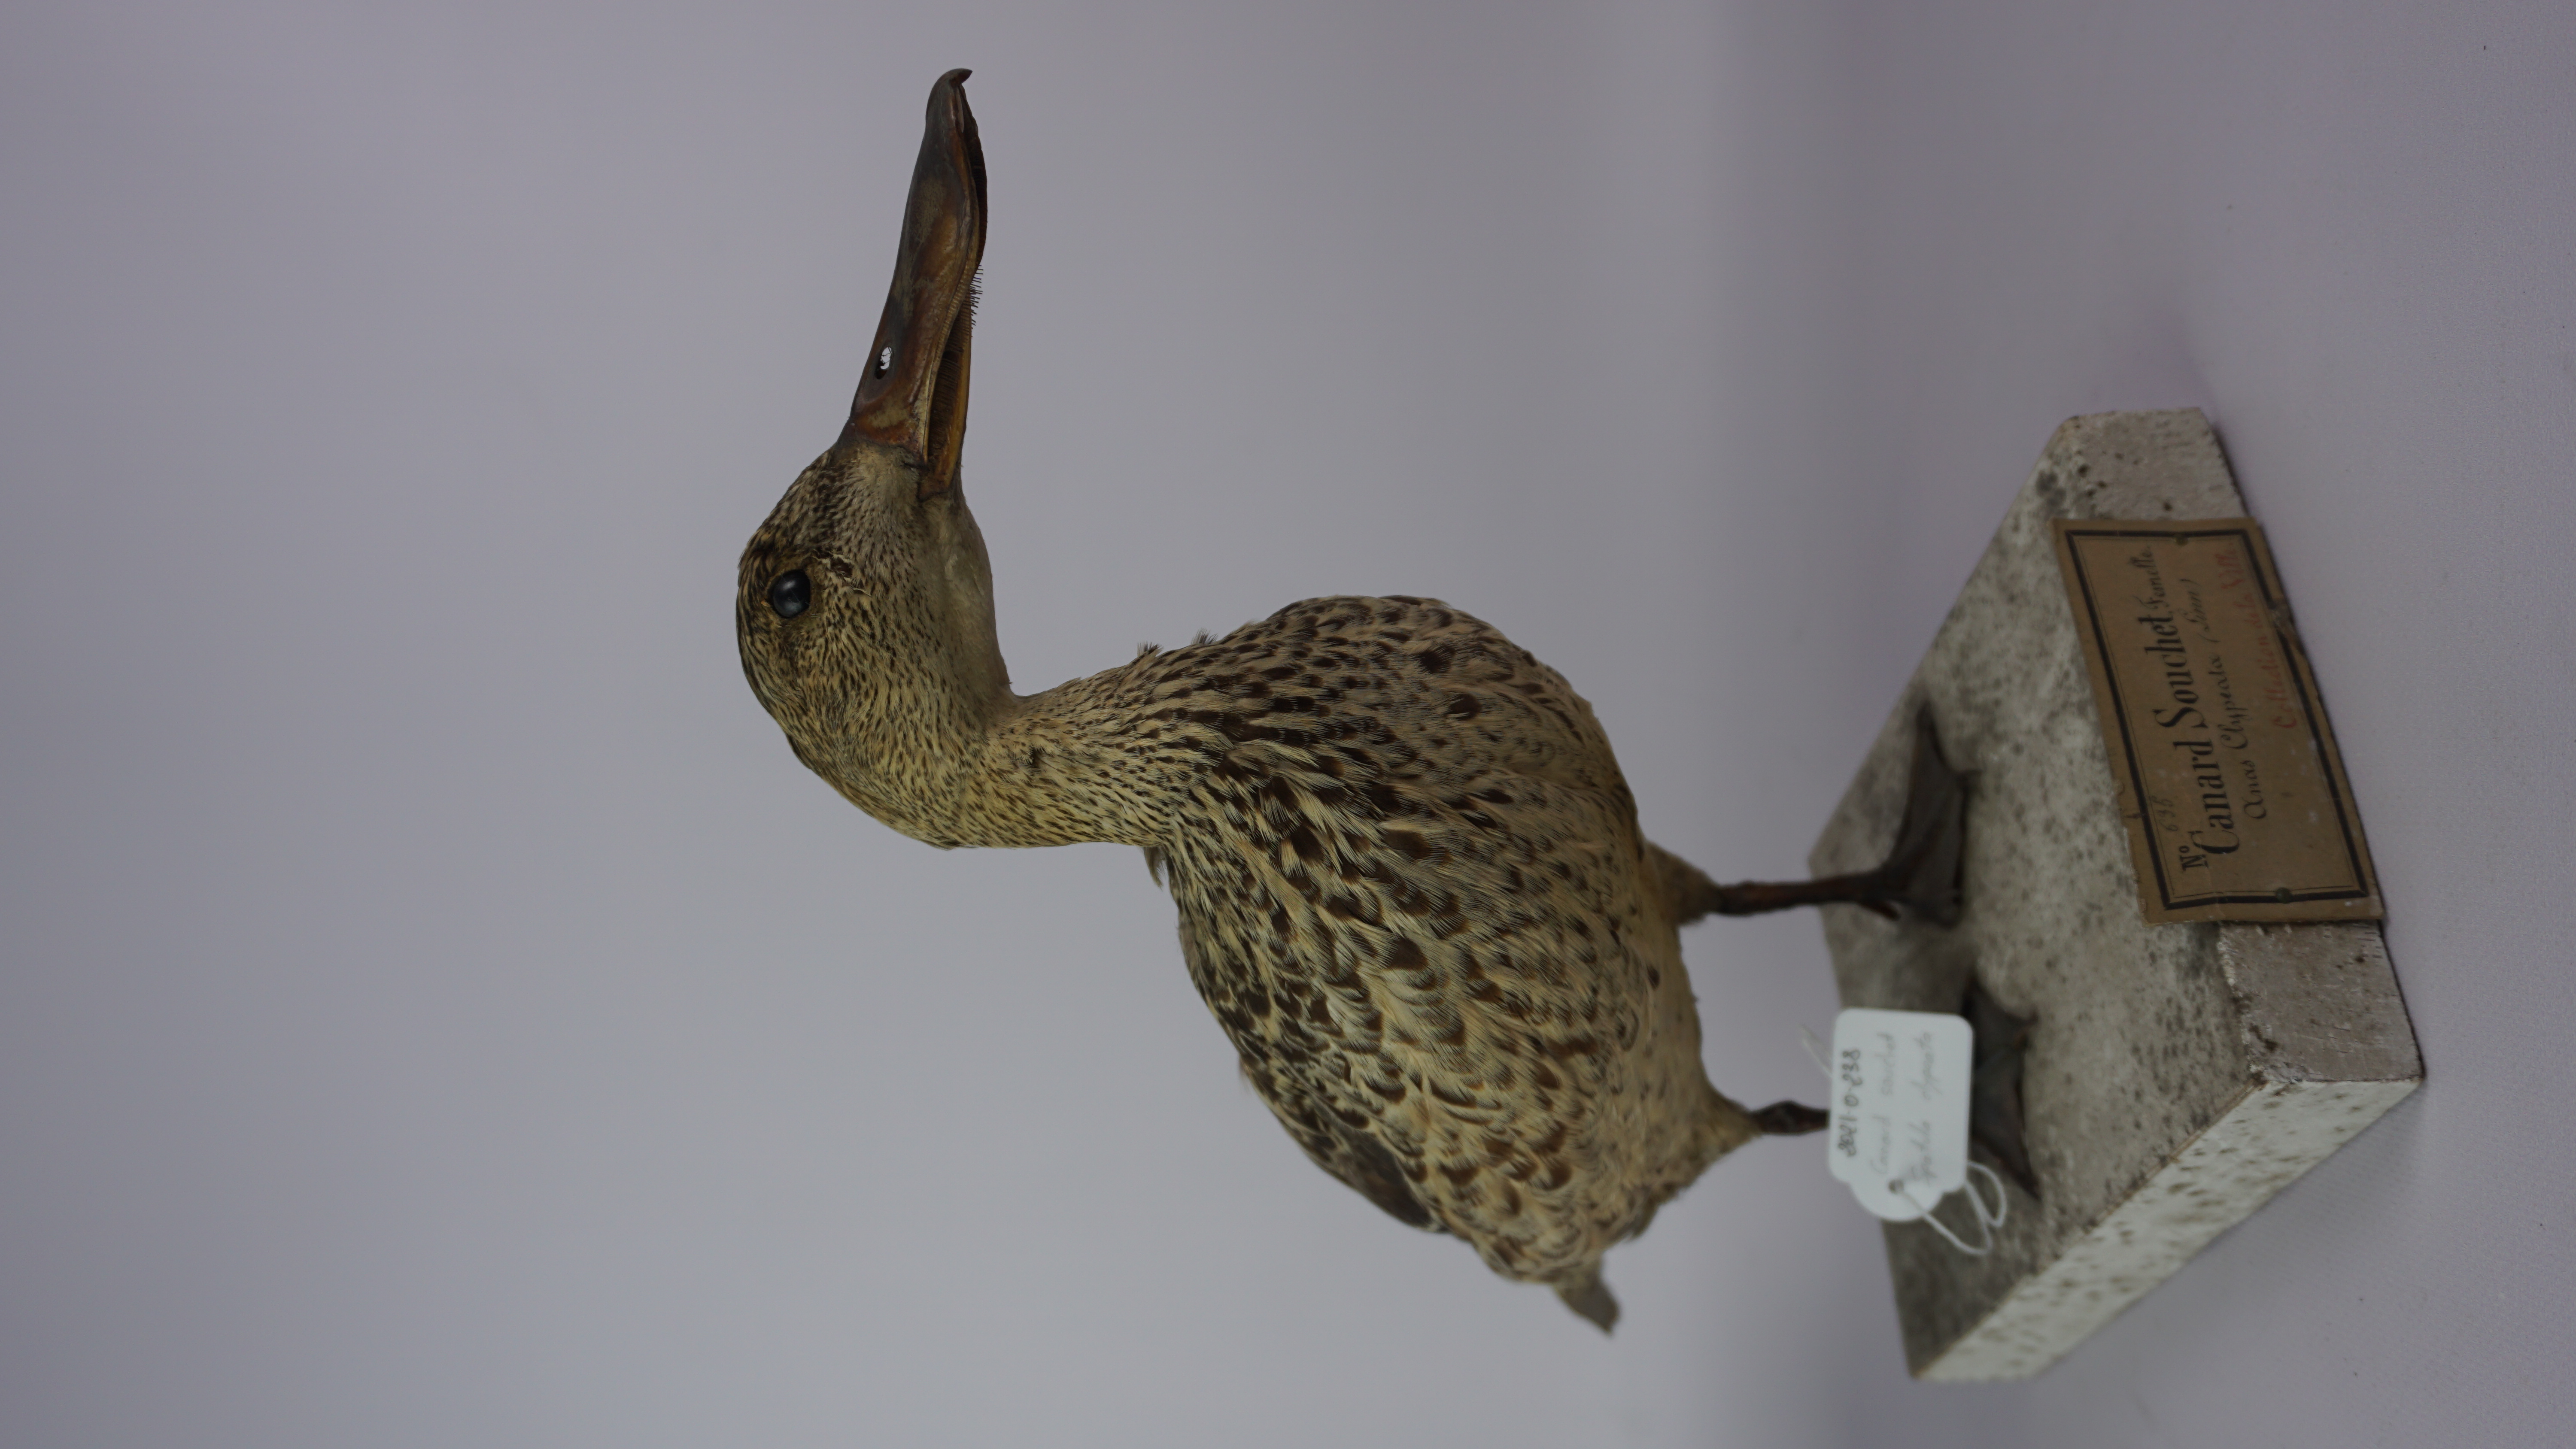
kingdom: Animalia
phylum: Chordata
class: Aves
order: Anseriformes
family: Anatidae
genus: Spatula
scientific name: Spatula clypeata
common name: Northern shoveler
